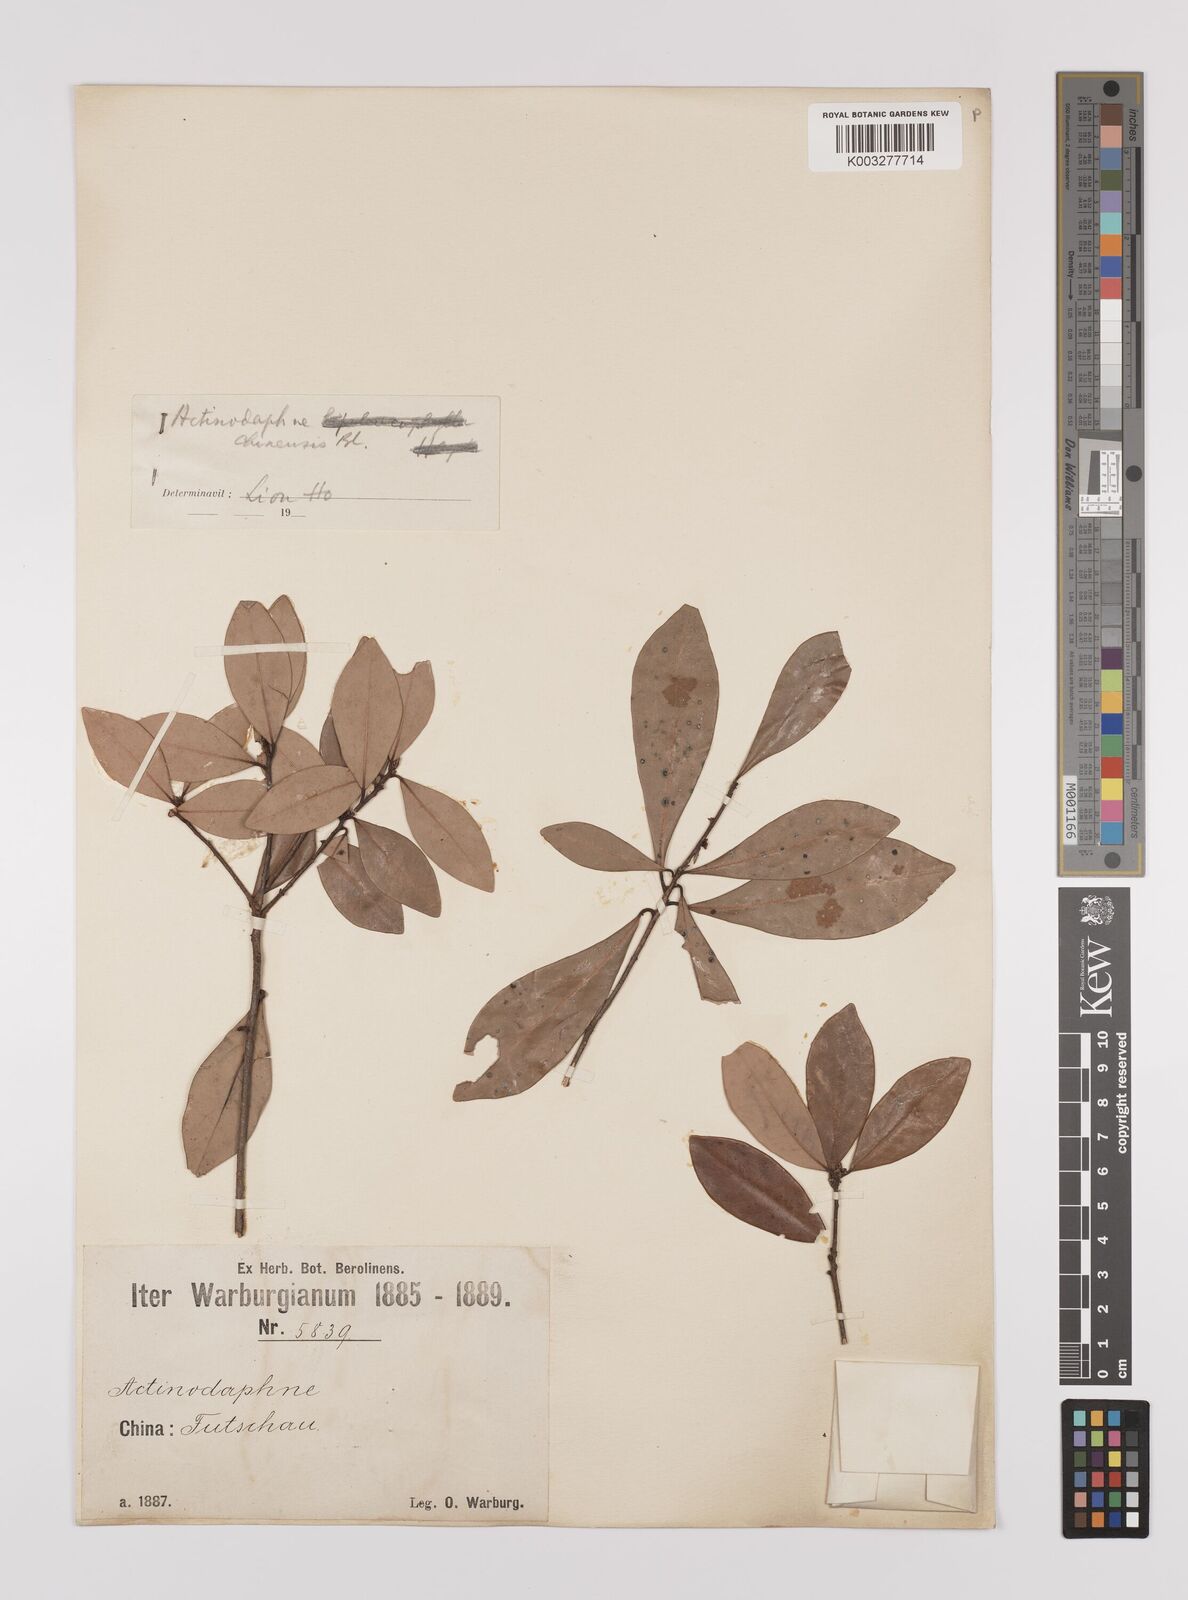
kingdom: Plantae
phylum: Tracheophyta
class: Magnoliopsida
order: Laurales
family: Lauraceae
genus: Litsea
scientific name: Litsea rotundifolia
